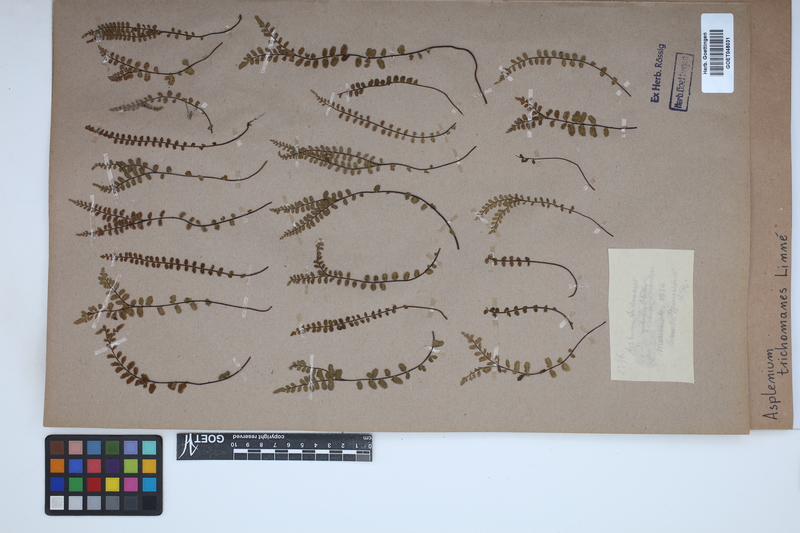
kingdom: Plantae
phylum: Tracheophyta
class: Polypodiopsida
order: Polypodiales
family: Aspleniaceae
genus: Asplenium
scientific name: Asplenium trichomanes
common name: Maidenhair spleenwort
